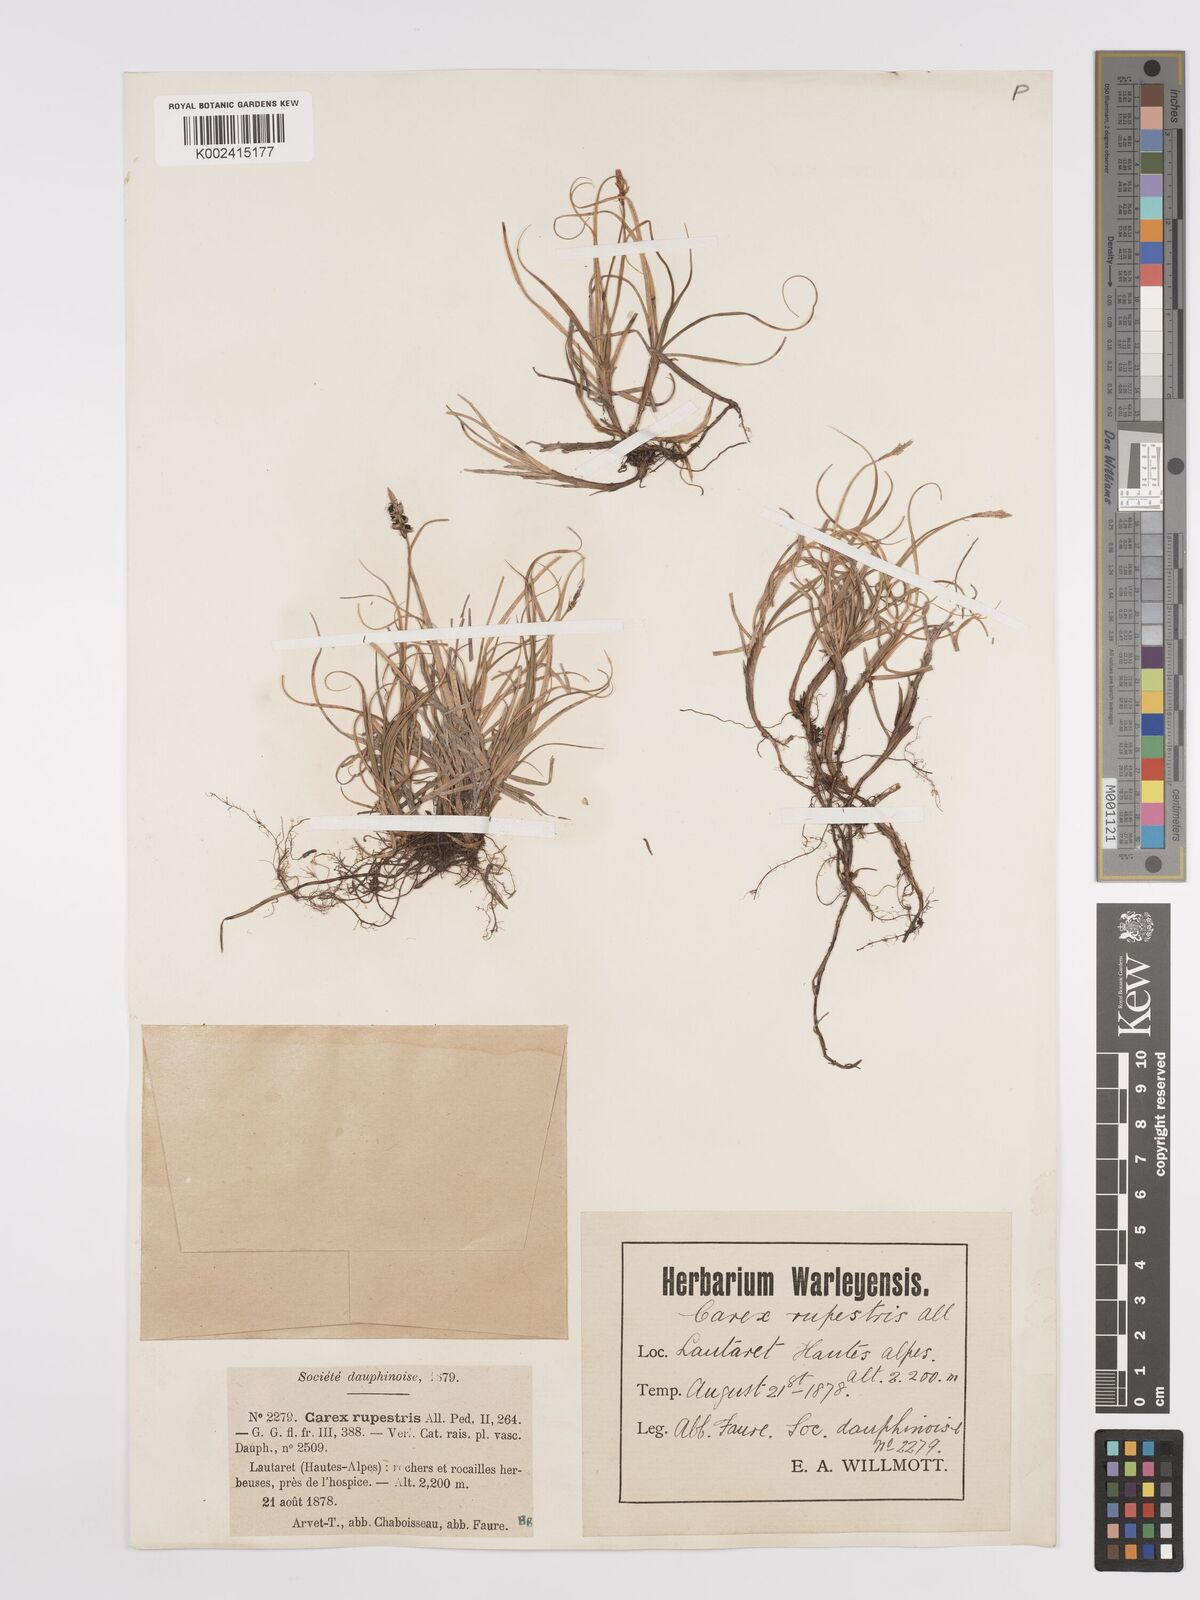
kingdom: Plantae
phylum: Tracheophyta
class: Liliopsida
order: Poales
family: Cyperaceae
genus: Carex
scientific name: Carex rupestris
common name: Rock sedge
